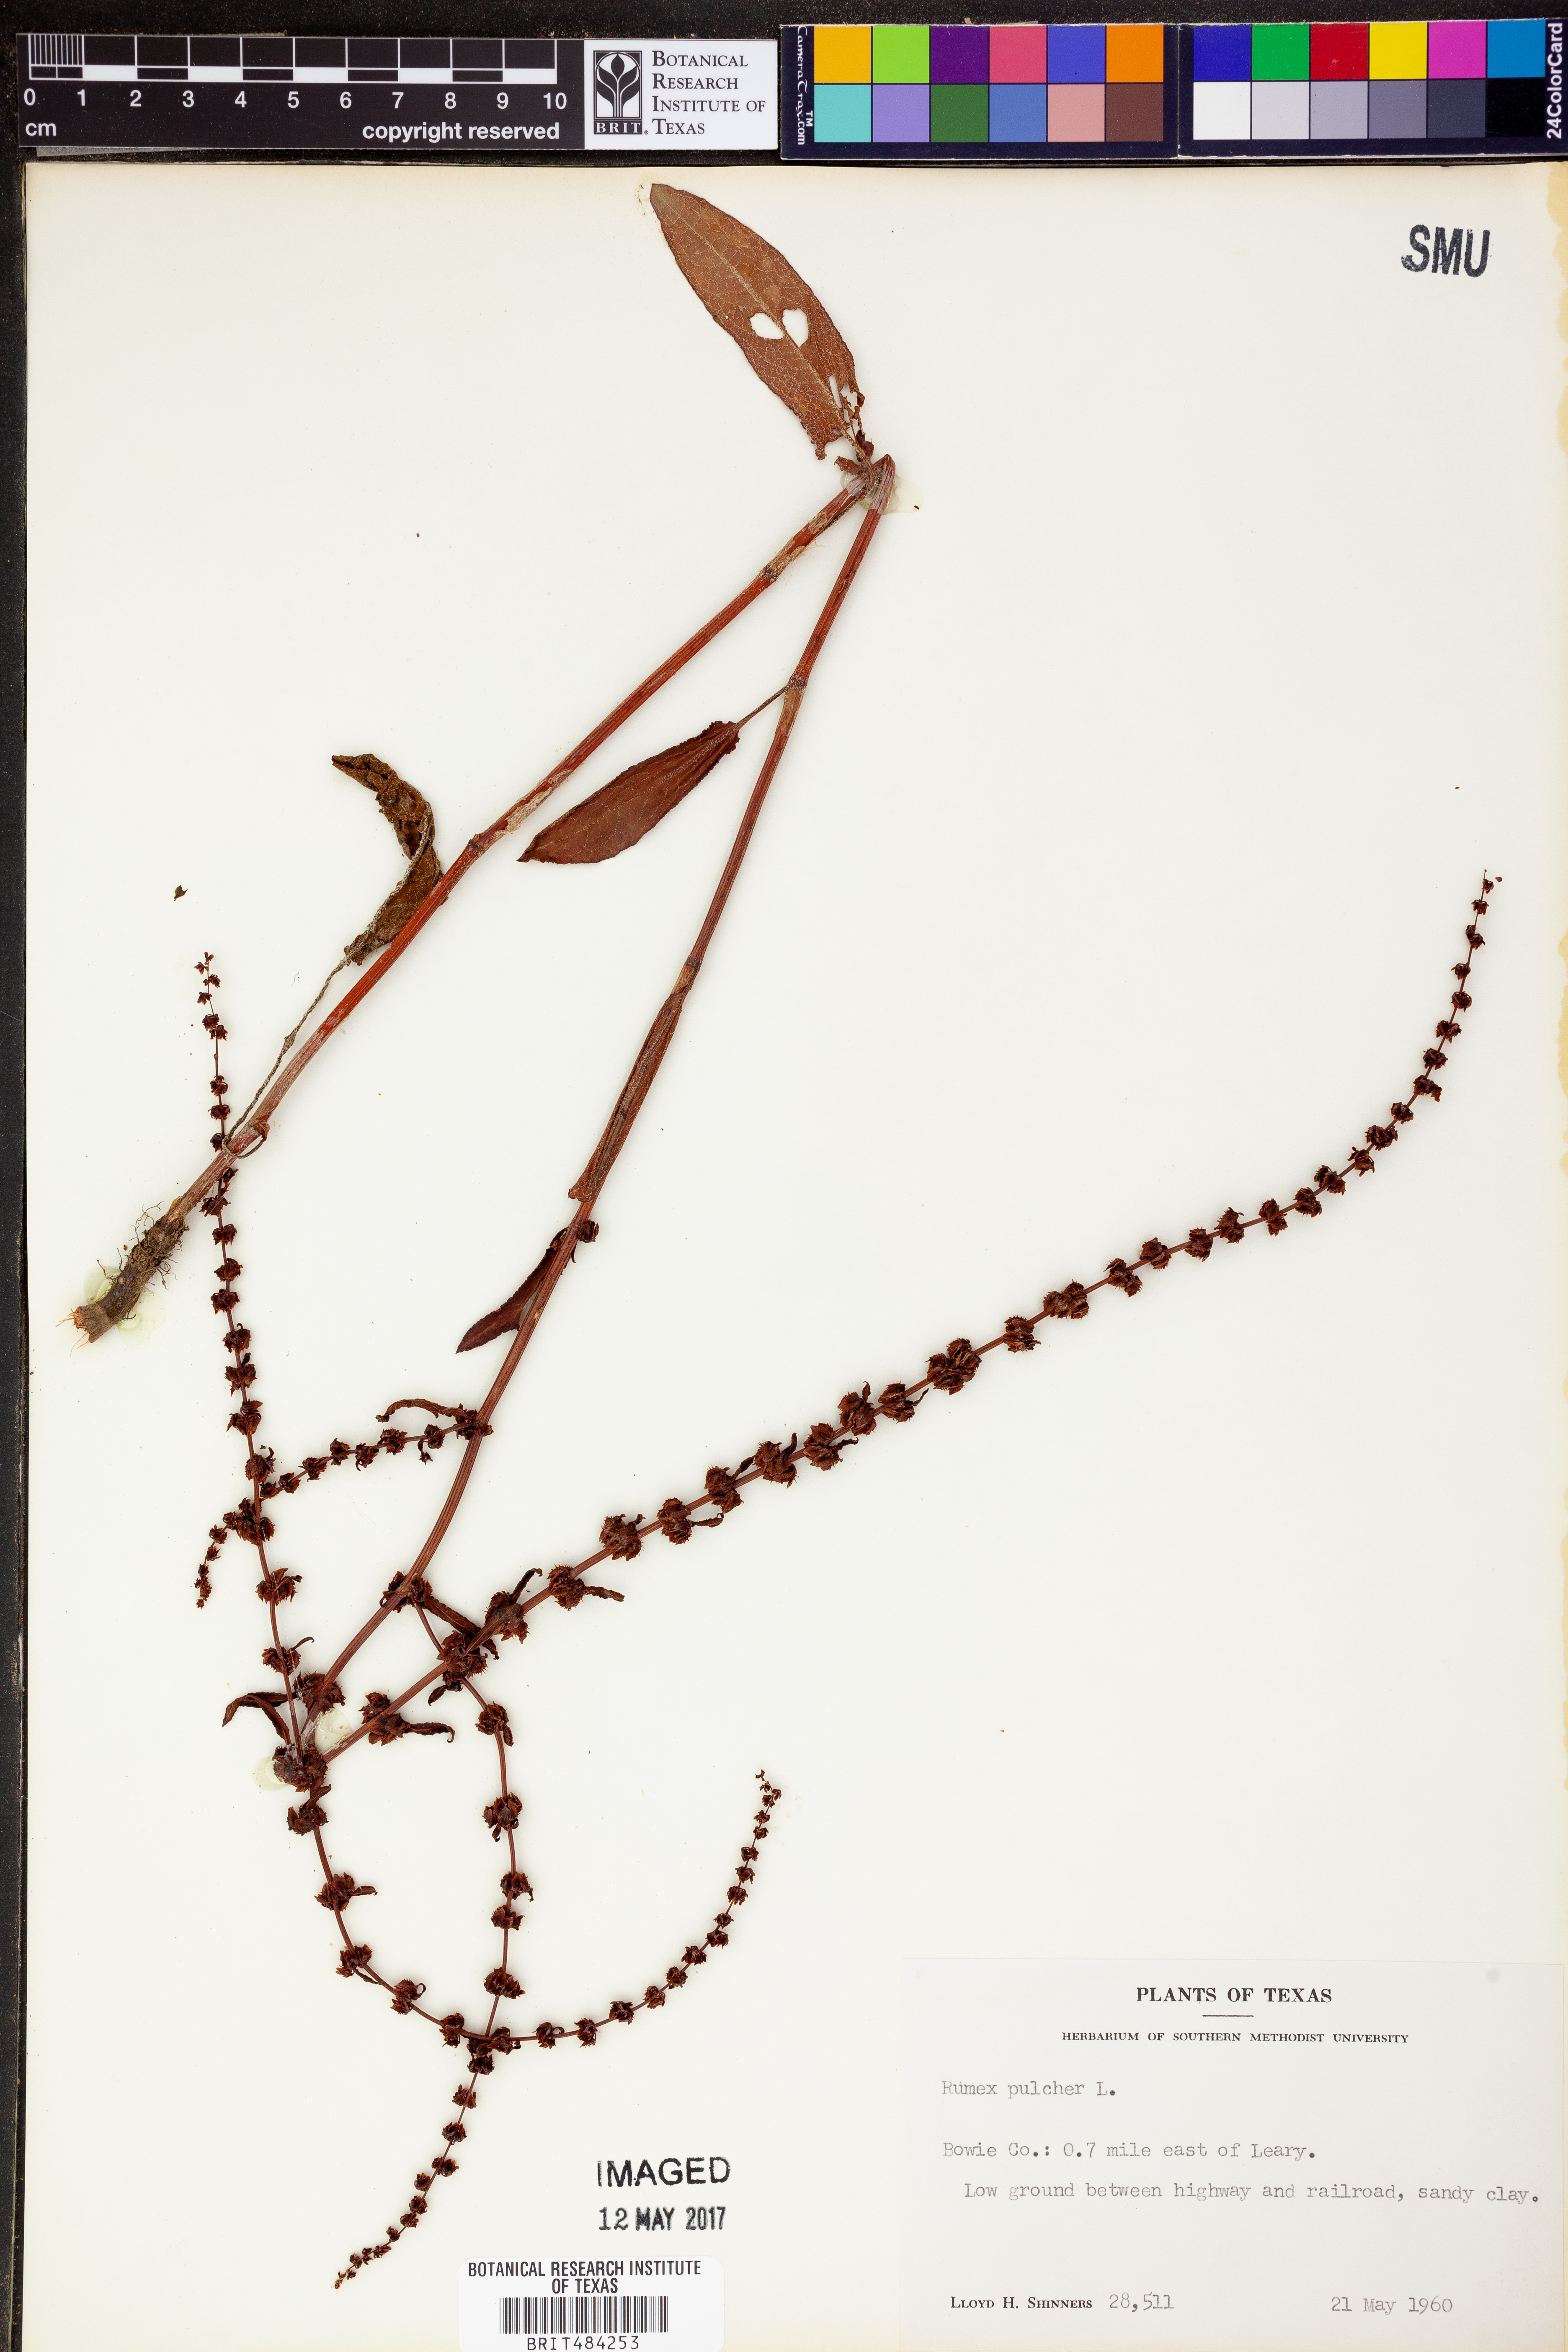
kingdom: Plantae
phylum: Tracheophyta
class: Magnoliopsida
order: Caryophyllales
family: Polygonaceae
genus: Rumex
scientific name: Rumex pulcher
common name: Fiddle dock
